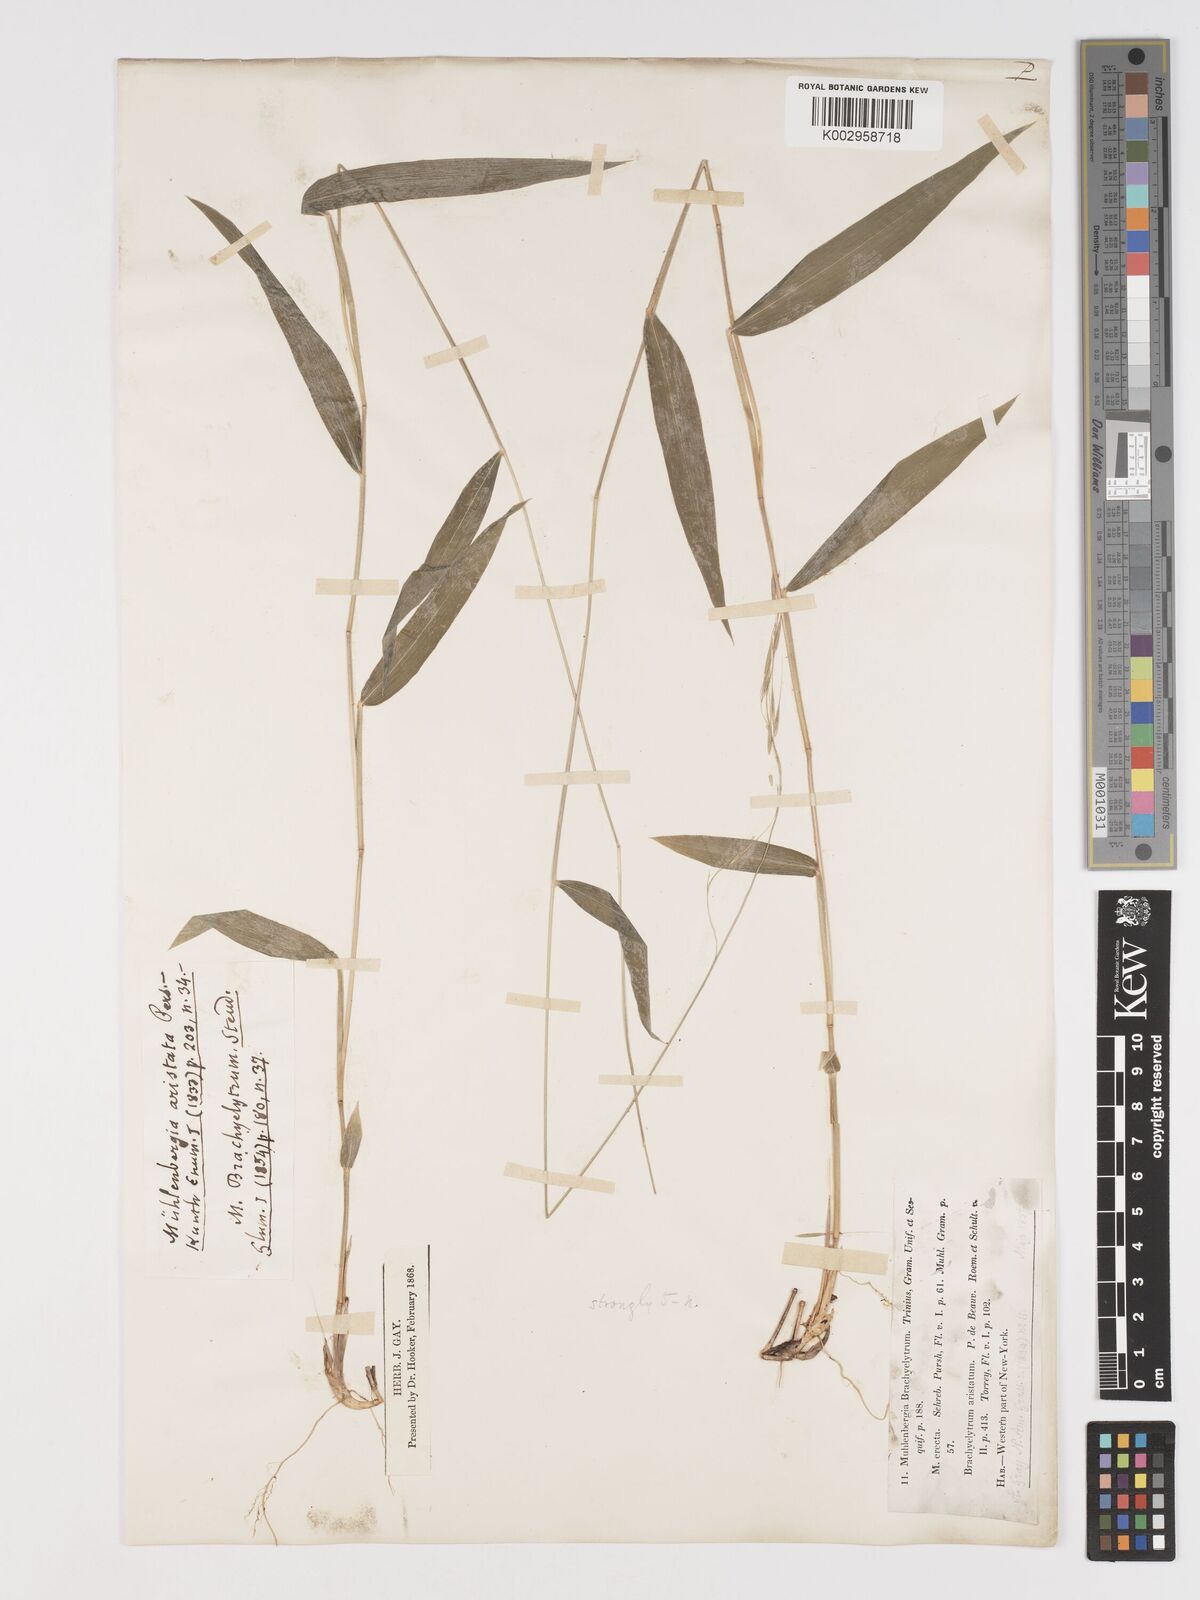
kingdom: Plantae
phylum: Tracheophyta
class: Liliopsida
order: Poales
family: Poaceae
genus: Brachyelytrum
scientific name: Brachyelytrum aristosum
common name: Northern shorthusk
